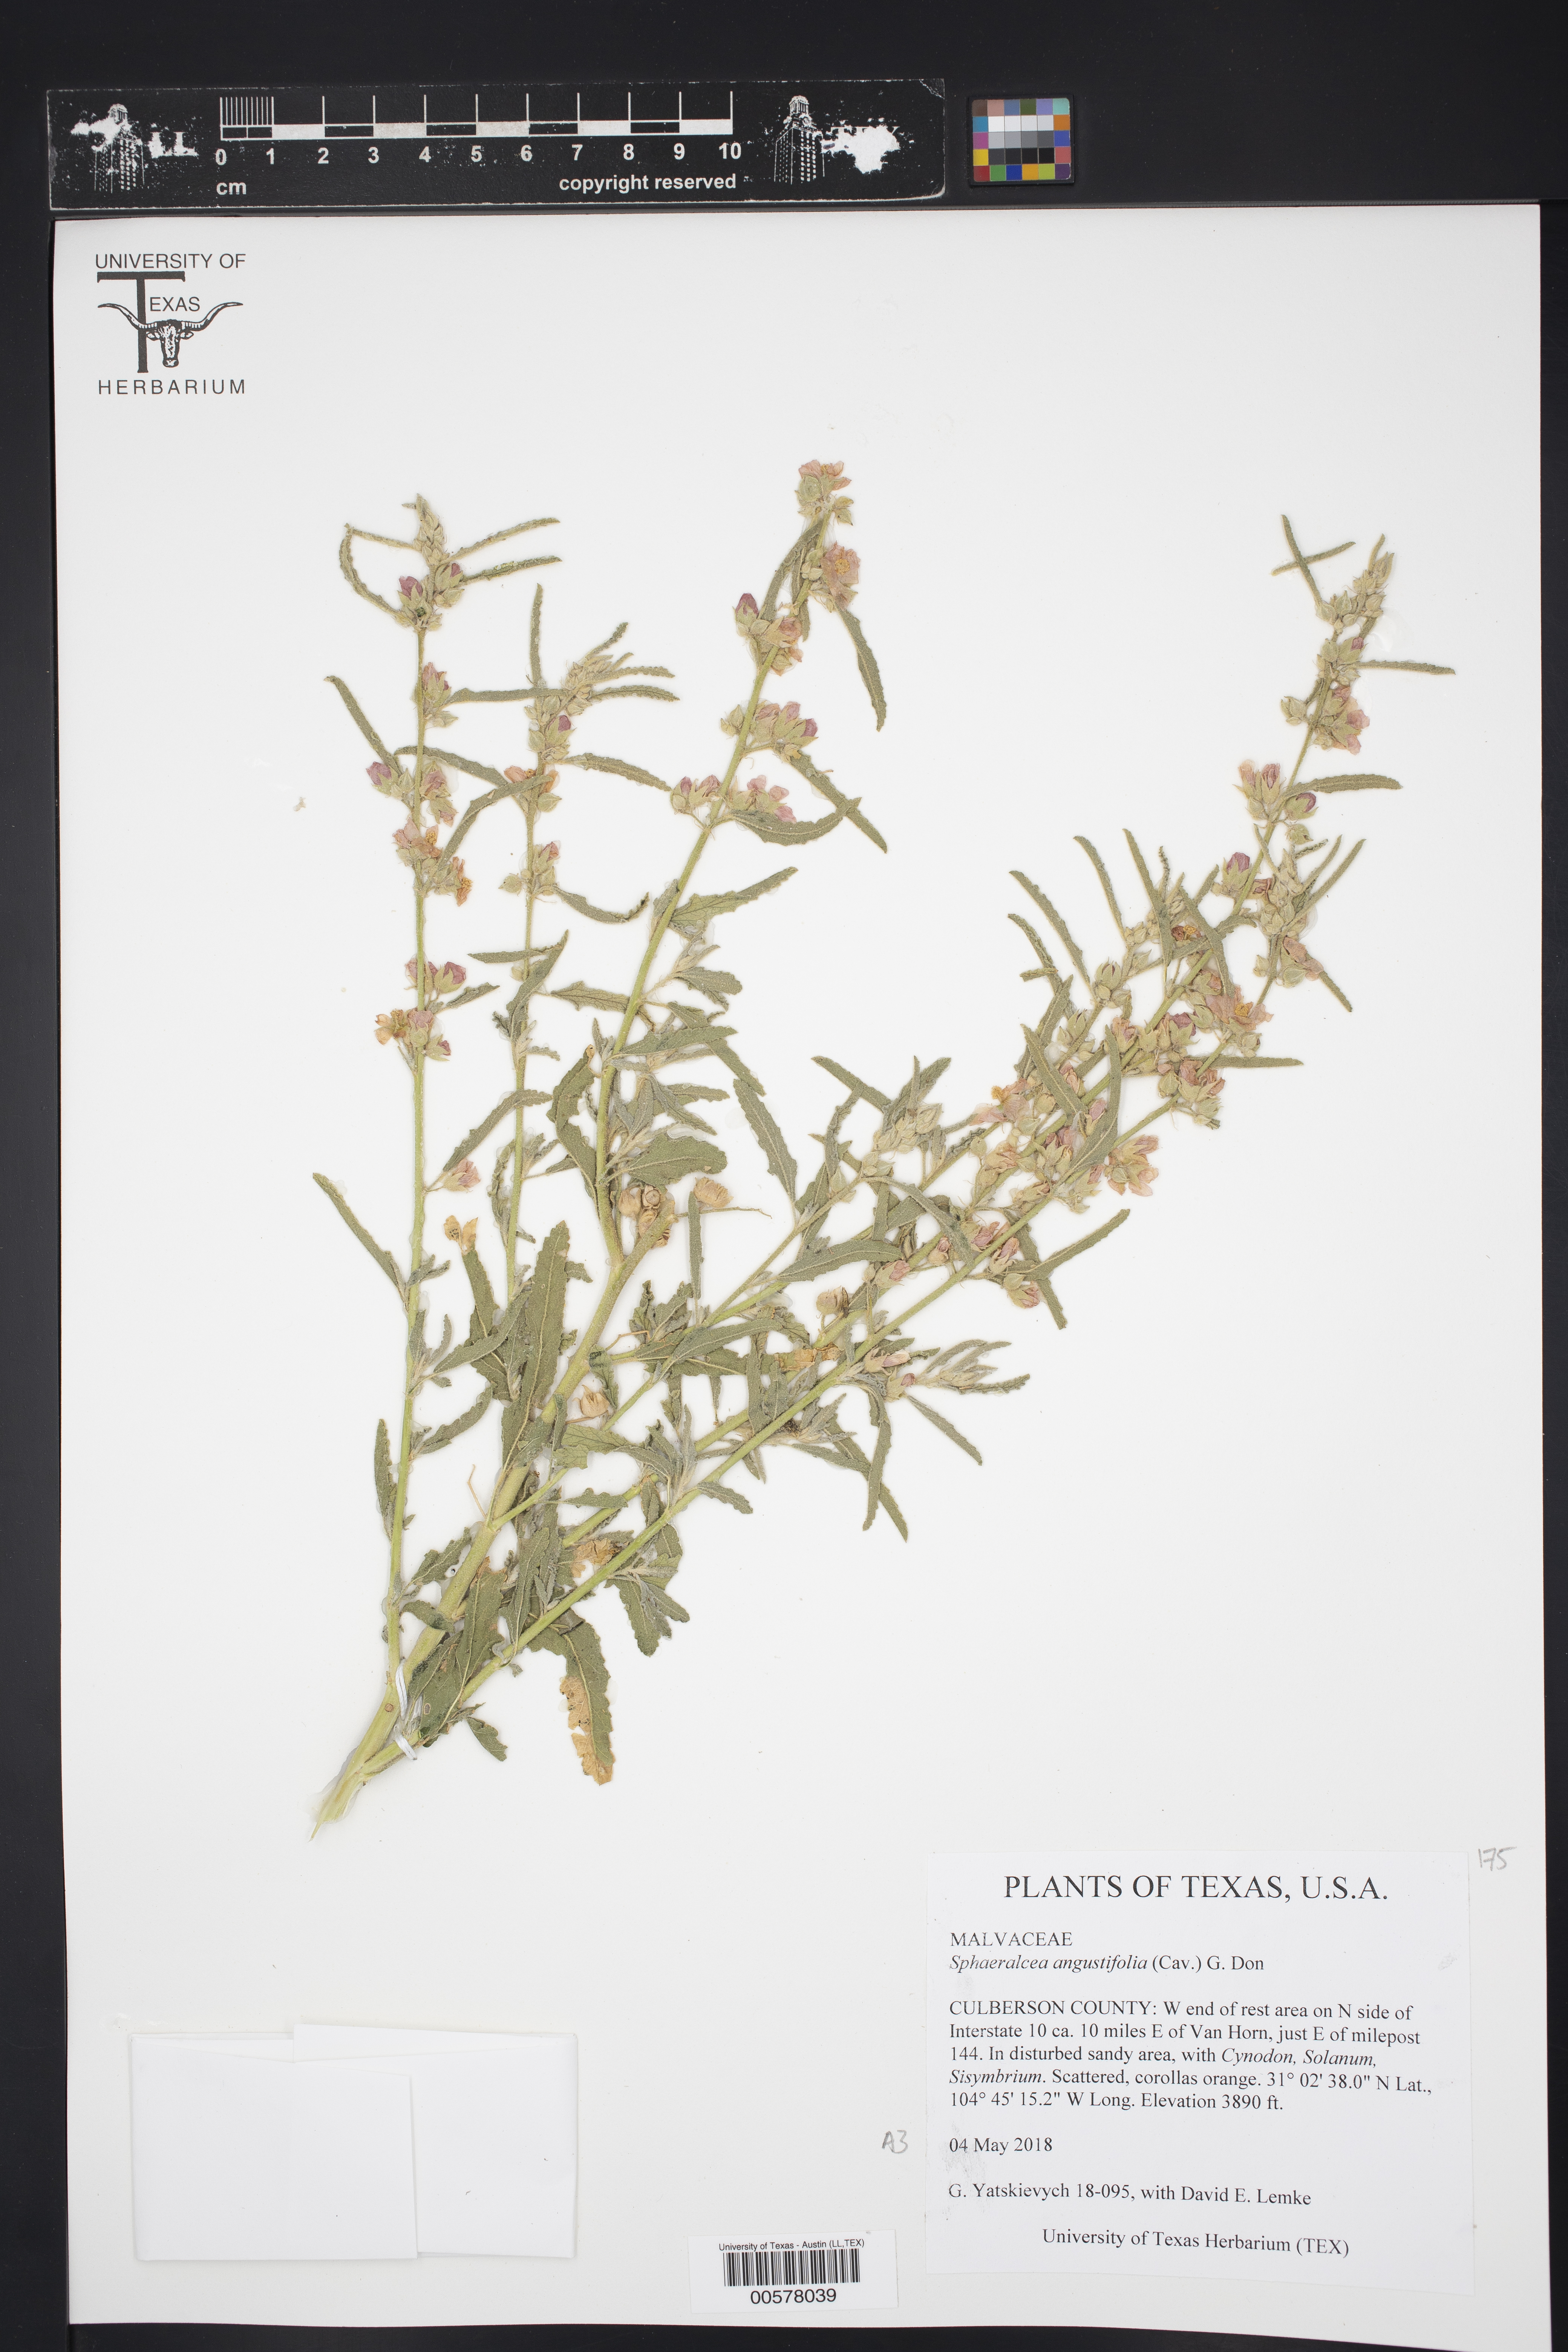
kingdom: Plantae
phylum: Tracheophyta
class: Magnoliopsida
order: Malvales
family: Malvaceae
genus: Sphaeralcea
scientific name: Sphaeralcea angustifolia
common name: Copper globe-mallow
